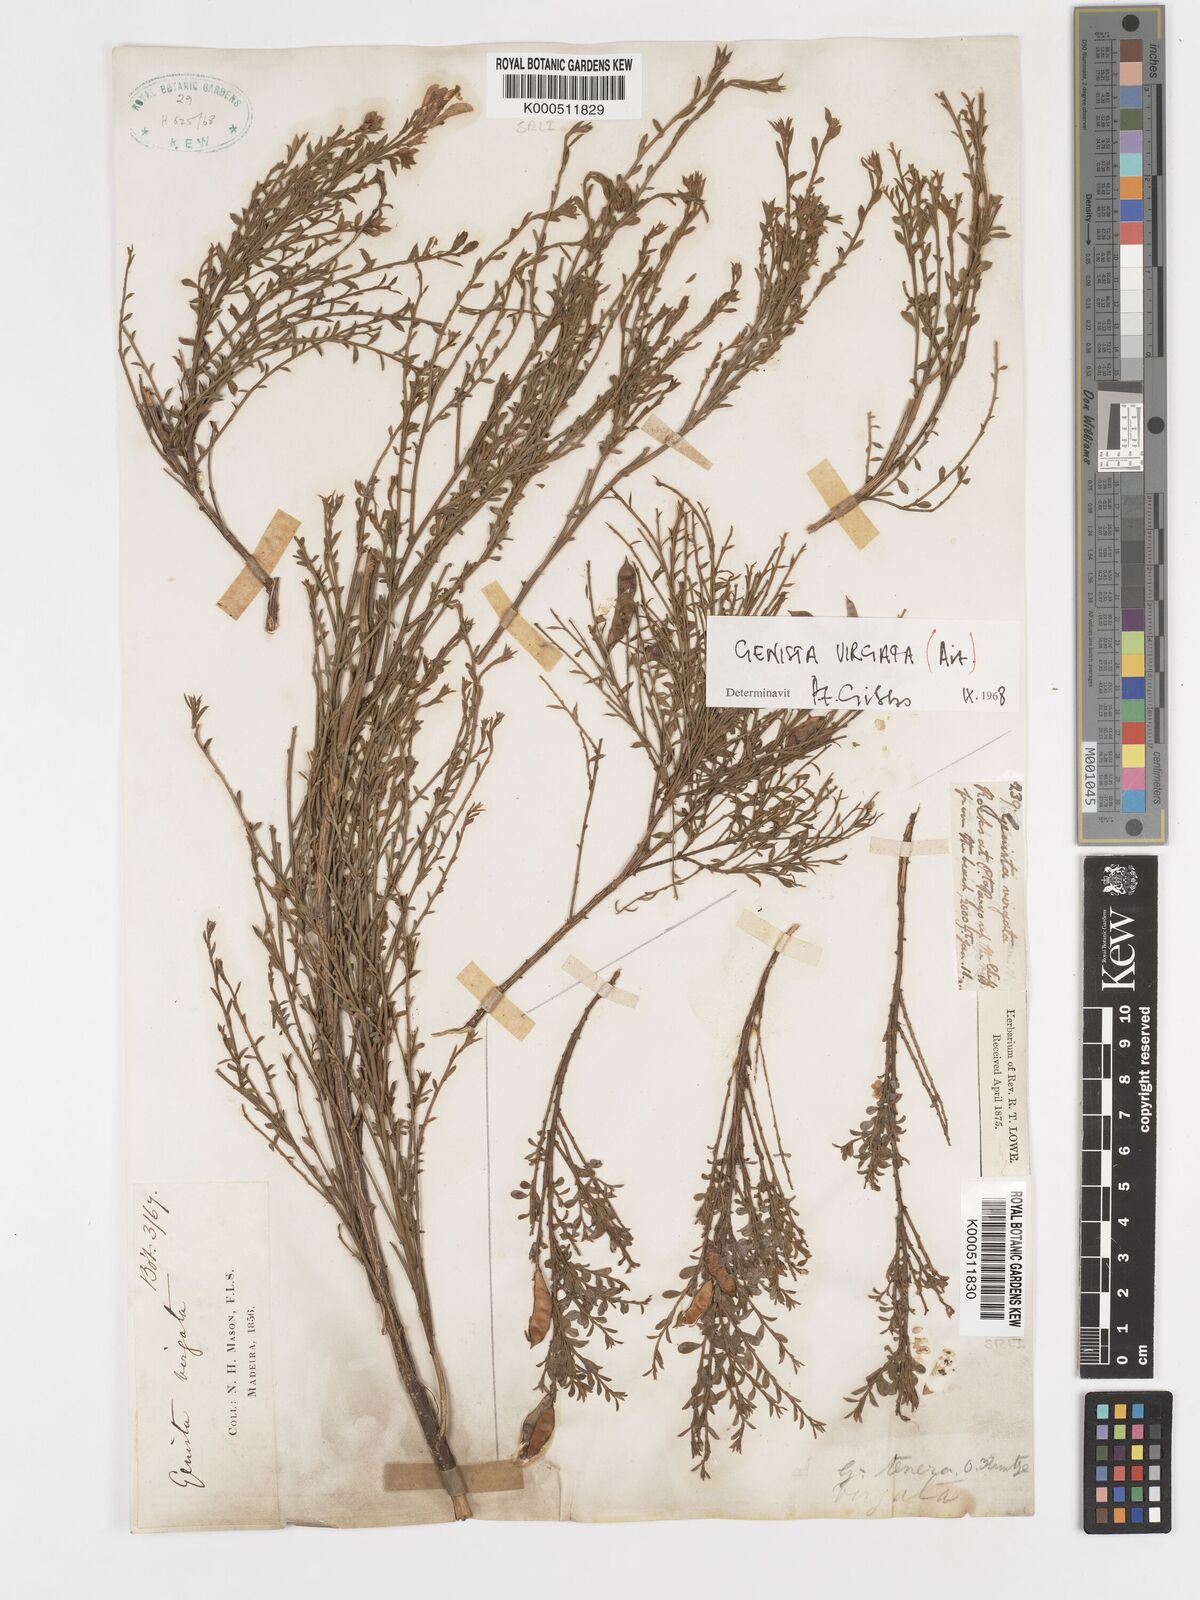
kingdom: Plantae
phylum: Tracheophyta
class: Magnoliopsida
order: Fabales
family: Fabaceae
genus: Genista
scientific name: Genista tenera
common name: Madeira broom
